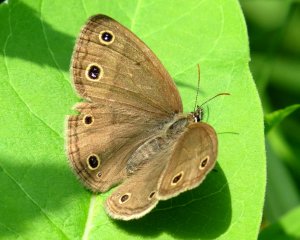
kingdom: Animalia
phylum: Arthropoda
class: Insecta
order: Lepidoptera
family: Nymphalidae
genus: Euptychia
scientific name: Euptychia cymela
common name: Little Wood Satyr
